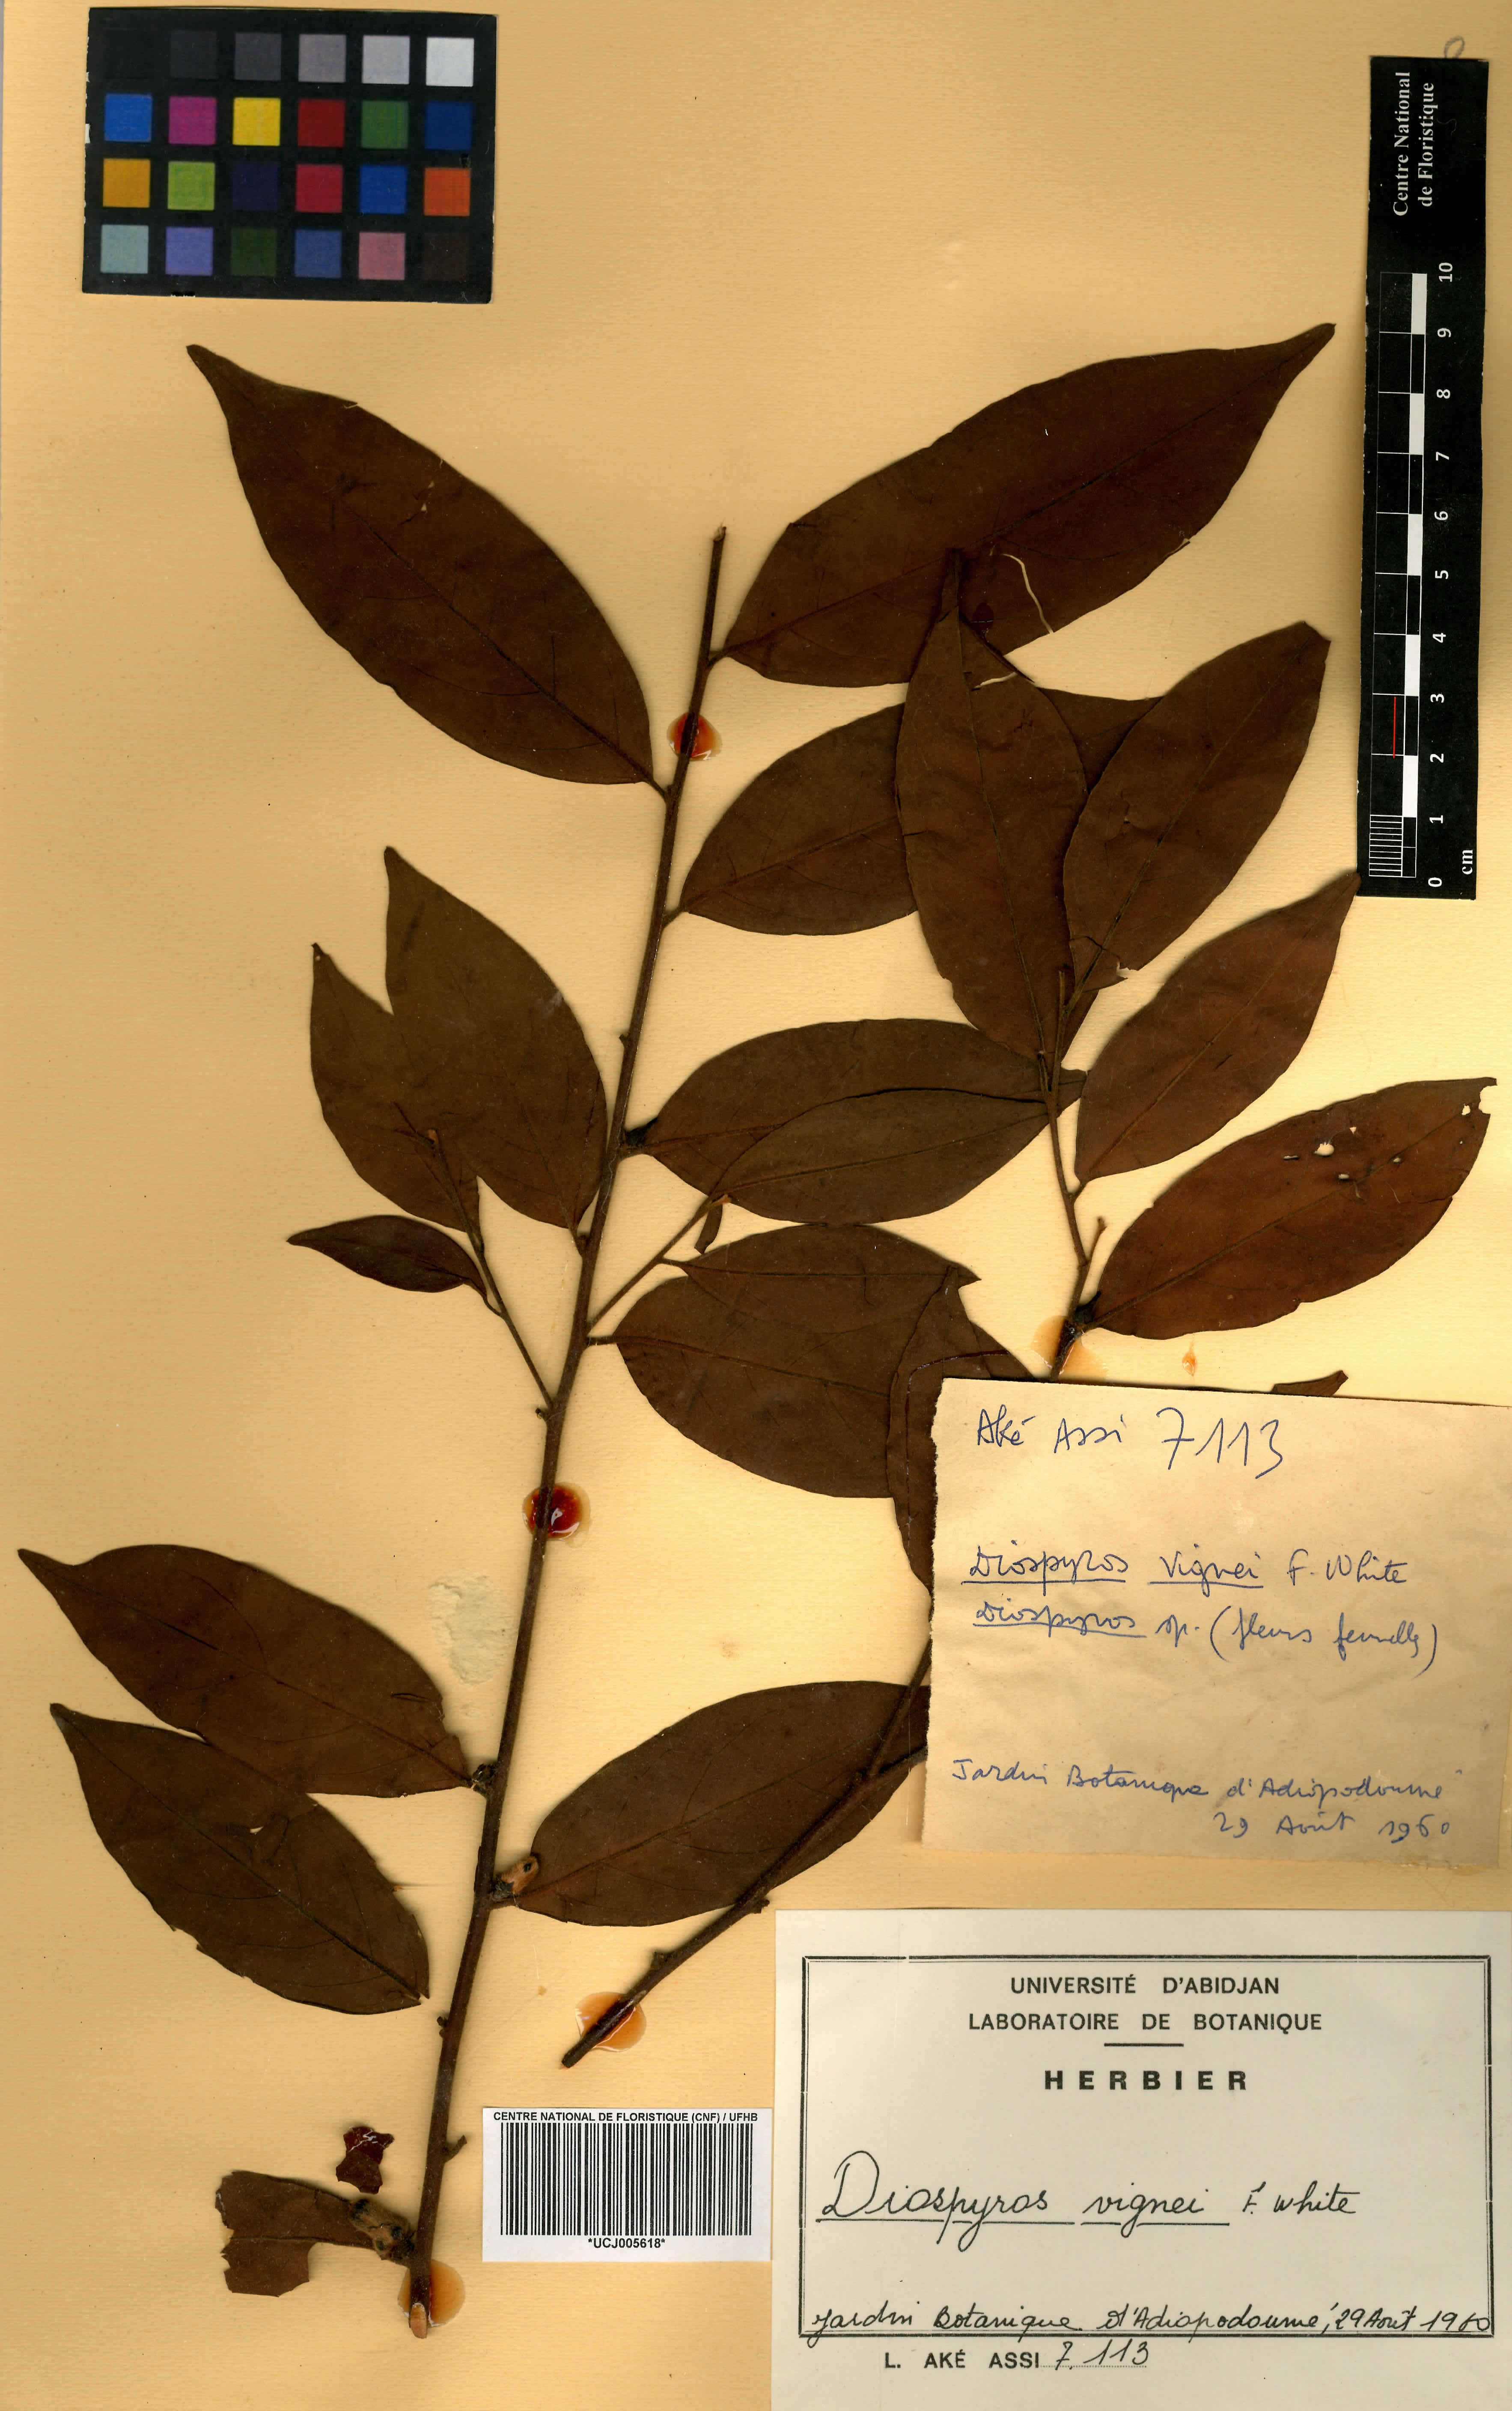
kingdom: Plantae
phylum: Tracheophyta
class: Magnoliopsida
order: Ericales
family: Ebenaceae
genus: Diospyros
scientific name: Diospyros vignei
